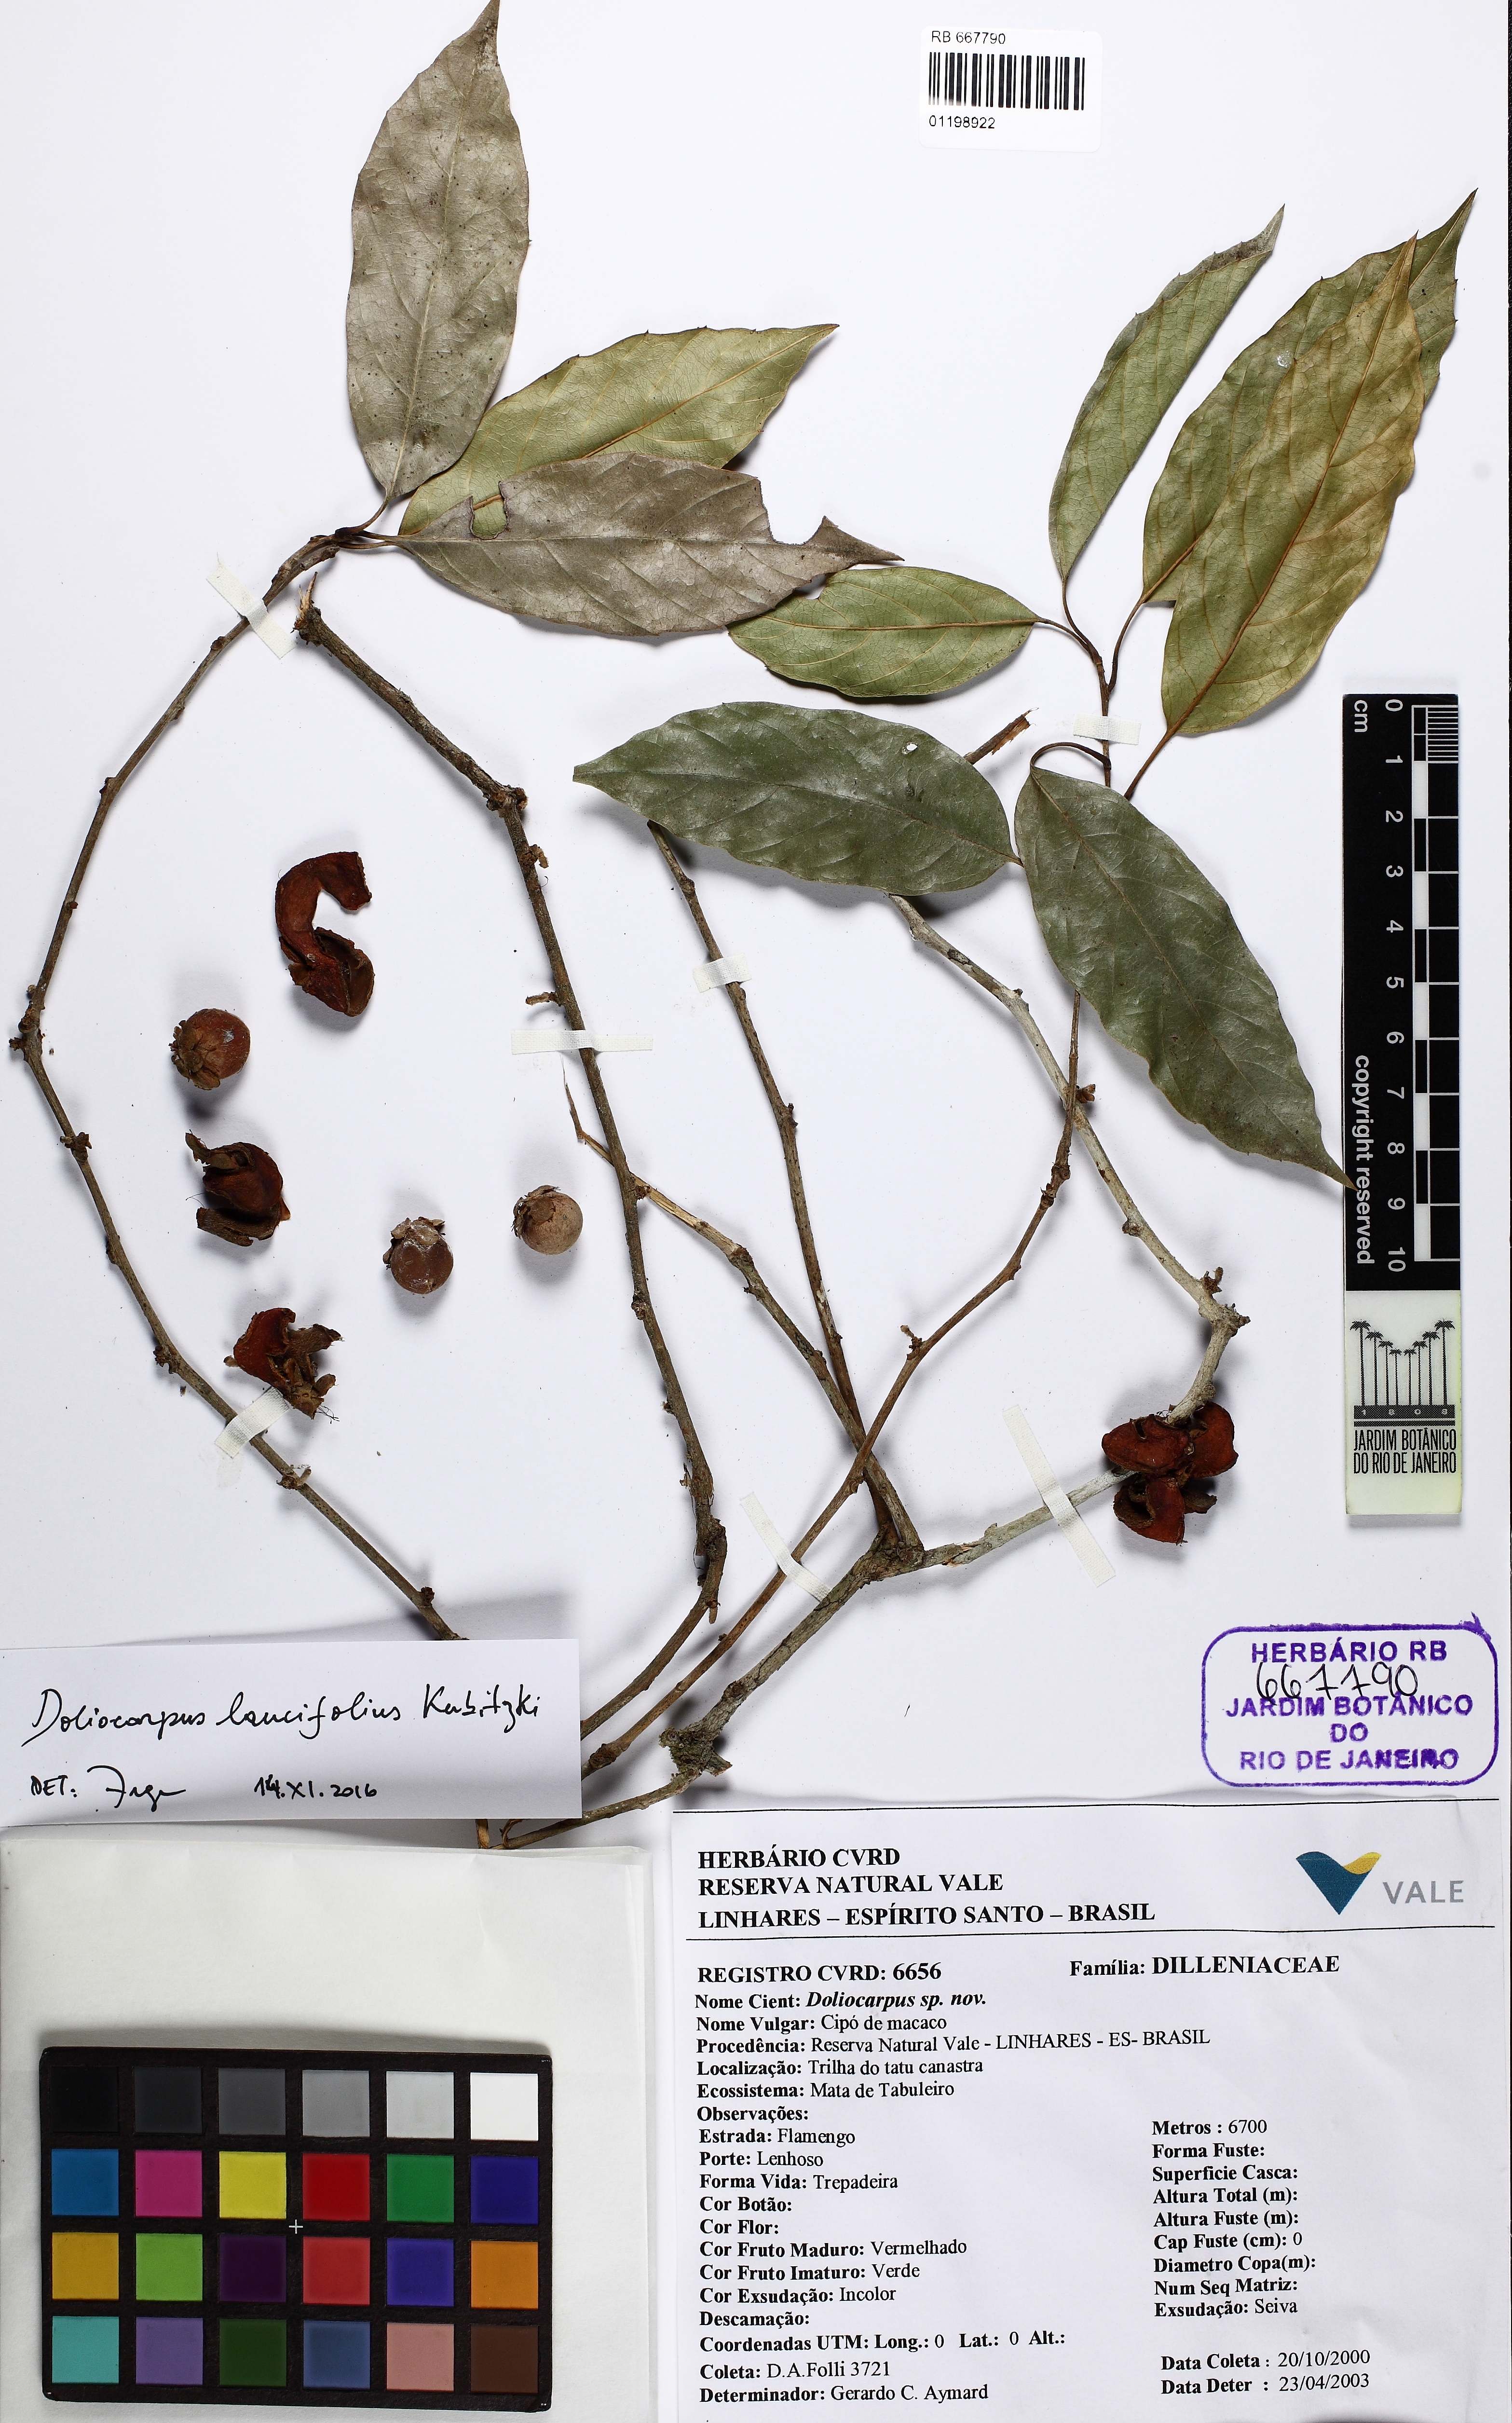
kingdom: Plantae
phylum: Tracheophyta
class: Magnoliopsida
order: Dilleniales
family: Dilleniaceae
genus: Doliocarpus
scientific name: Doliocarpus lancifolius
